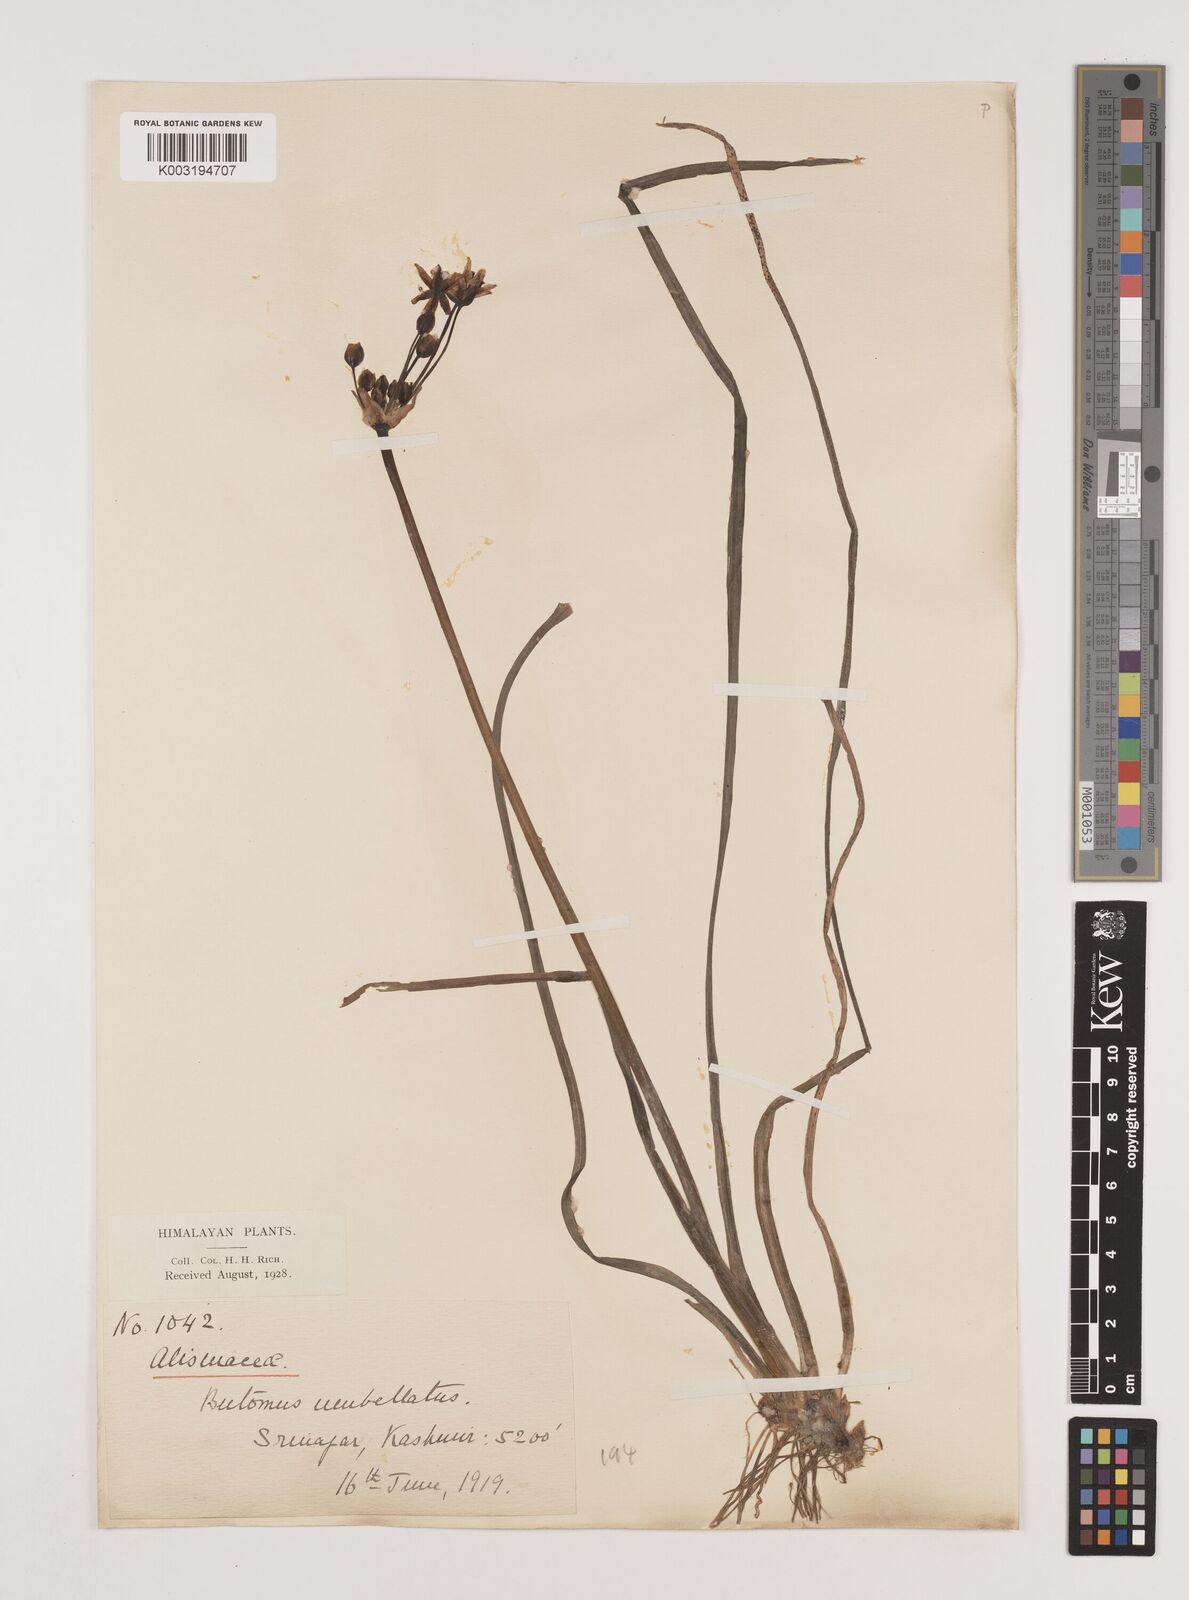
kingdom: Plantae
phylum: Tracheophyta
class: Liliopsida
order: Alismatales
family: Butomaceae
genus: Butomus
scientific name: Butomus umbellatus
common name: Flowering-rush
